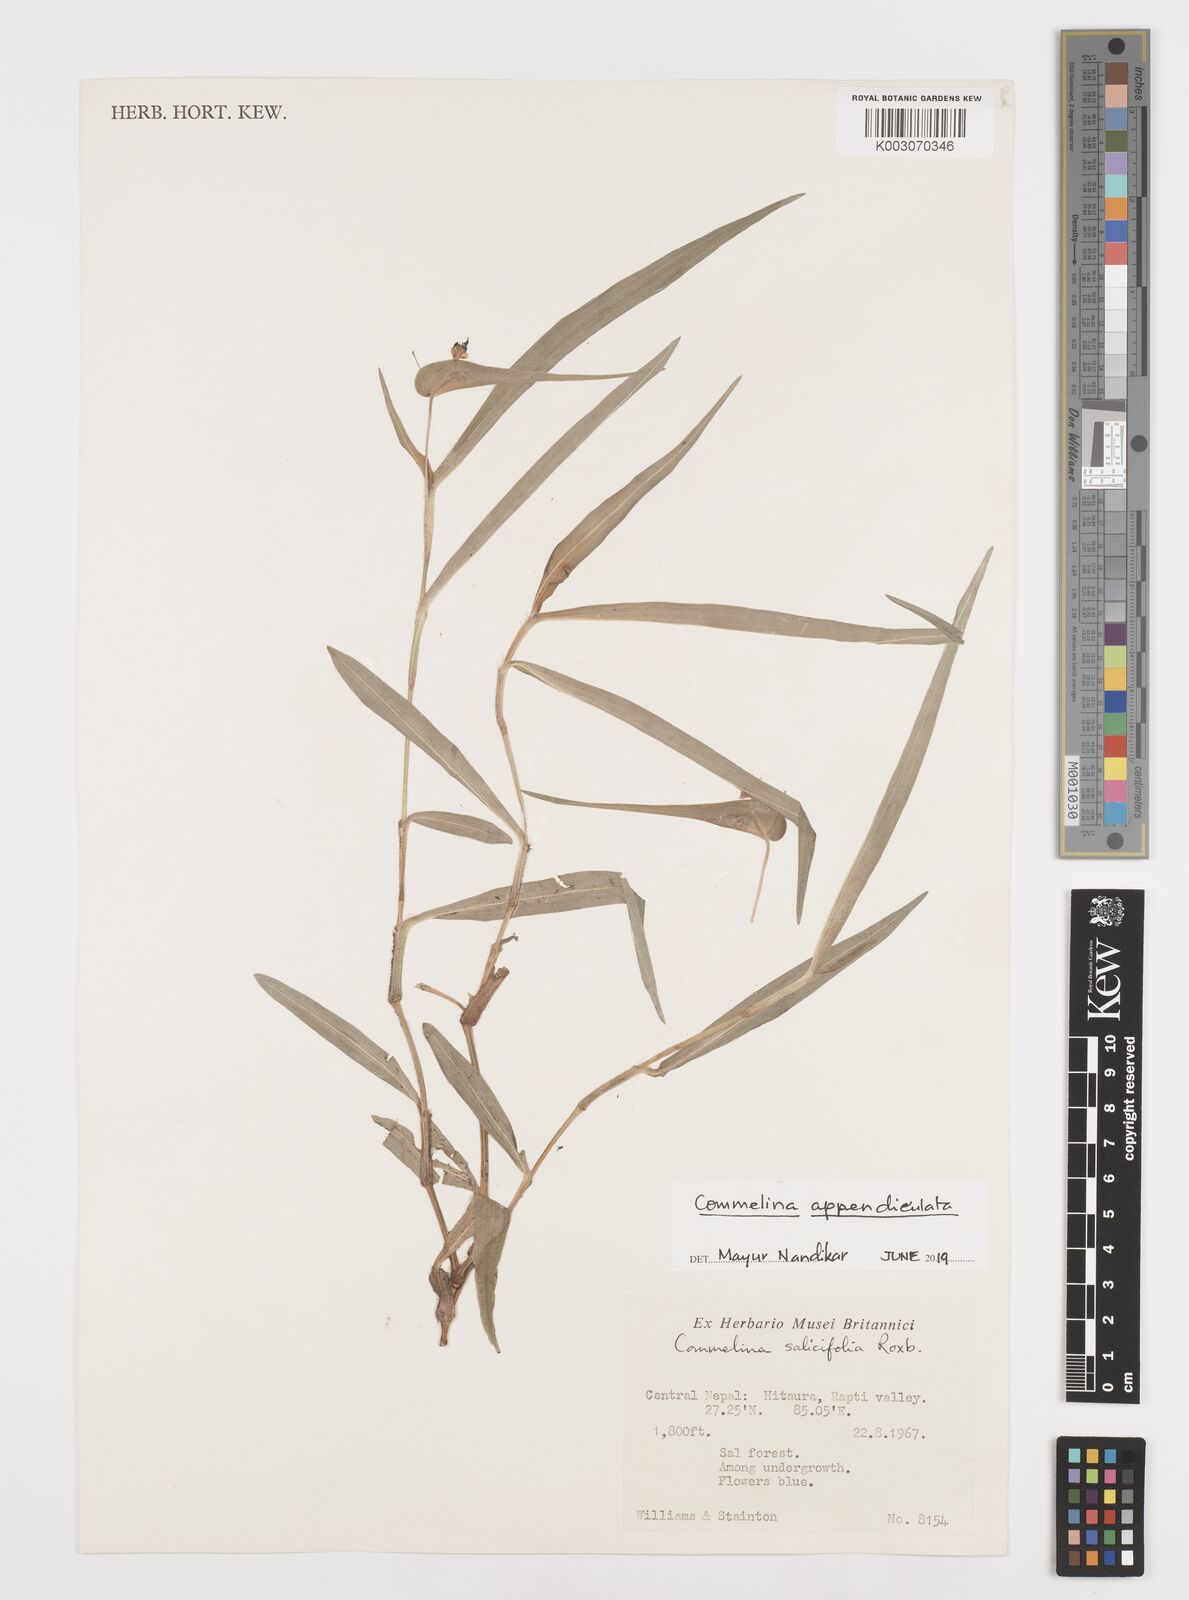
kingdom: Plantae
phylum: Tracheophyta
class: Liliopsida
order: Commelinales
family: Commelinaceae
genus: Commelina
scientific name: Commelina appendiculata
